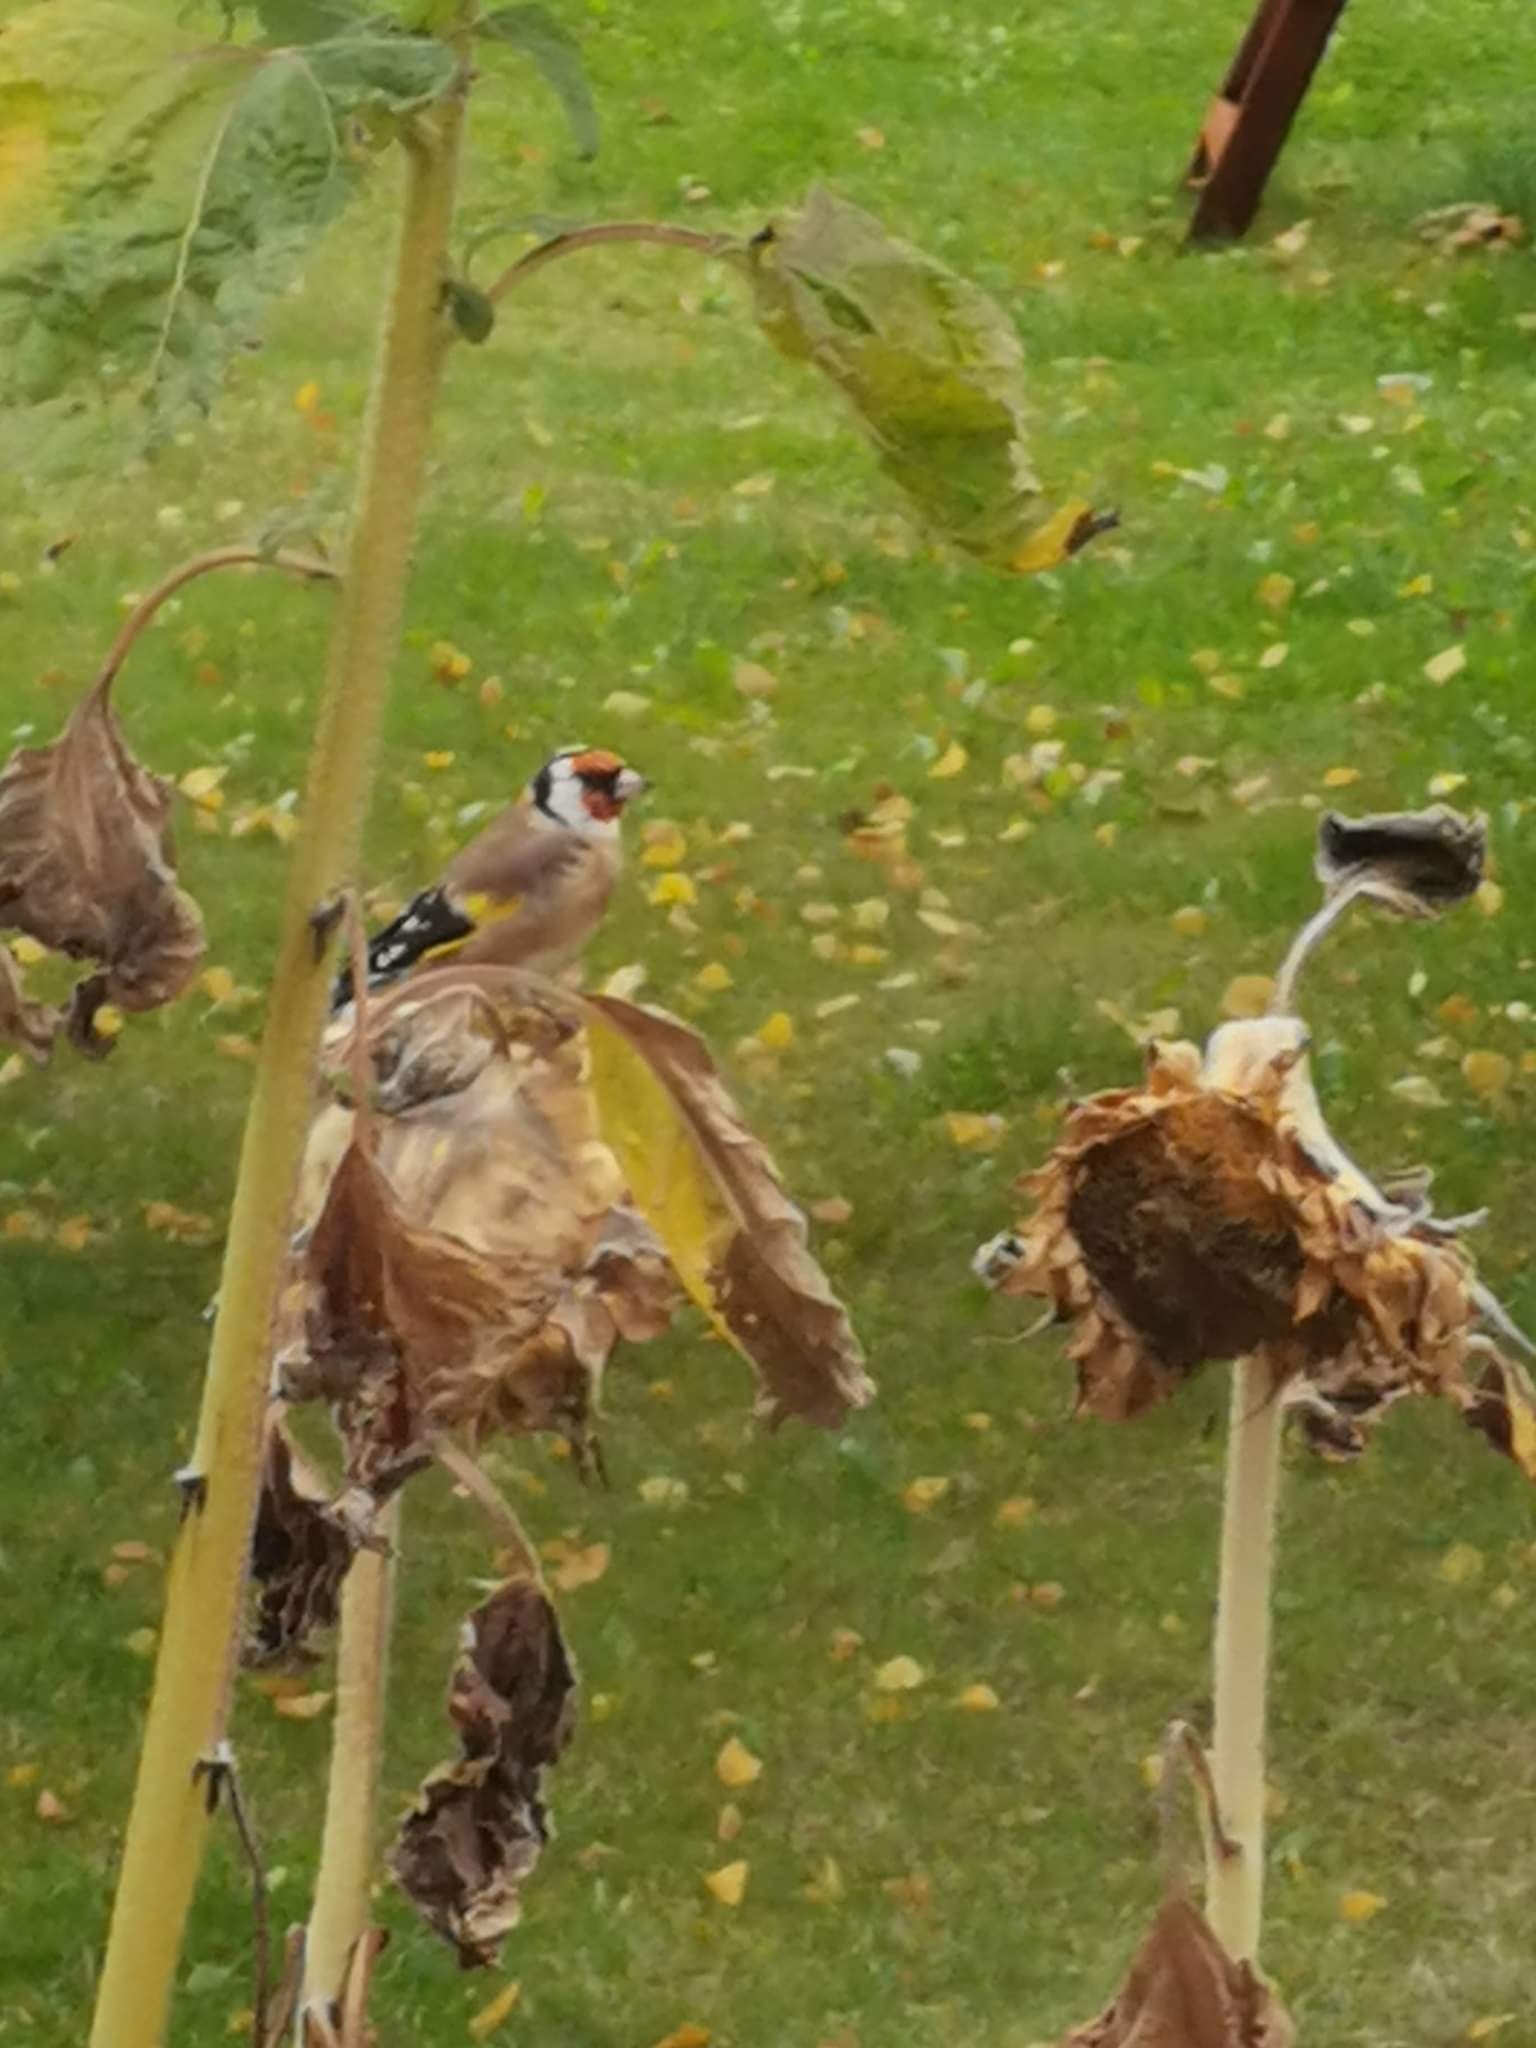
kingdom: Animalia
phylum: Chordata
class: Aves
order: Passeriformes
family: Fringillidae
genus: Carduelis
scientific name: Carduelis carduelis
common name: Stillits
